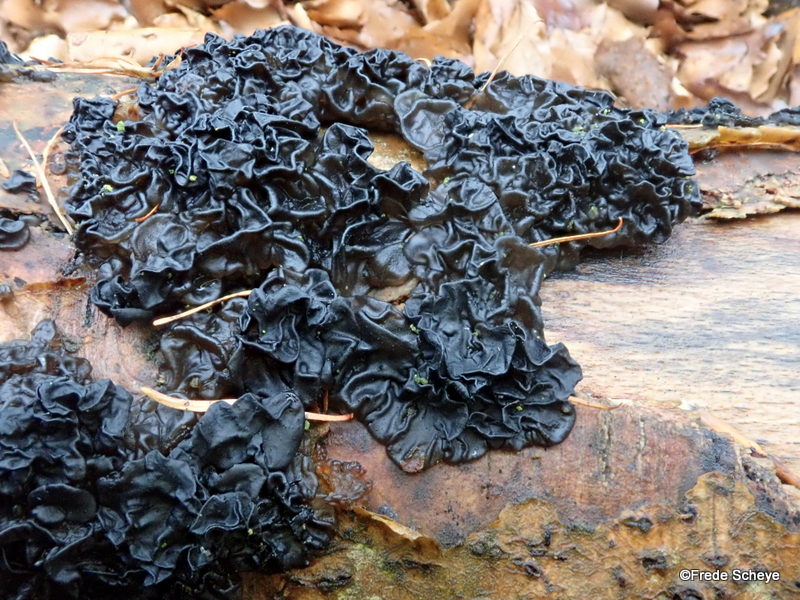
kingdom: Fungi
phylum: Basidiomycota
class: Agaricomycetes
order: Auriculariales
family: Auriculariaceae
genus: Exidia
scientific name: Exidia nigricans
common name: almindelig bævretop
